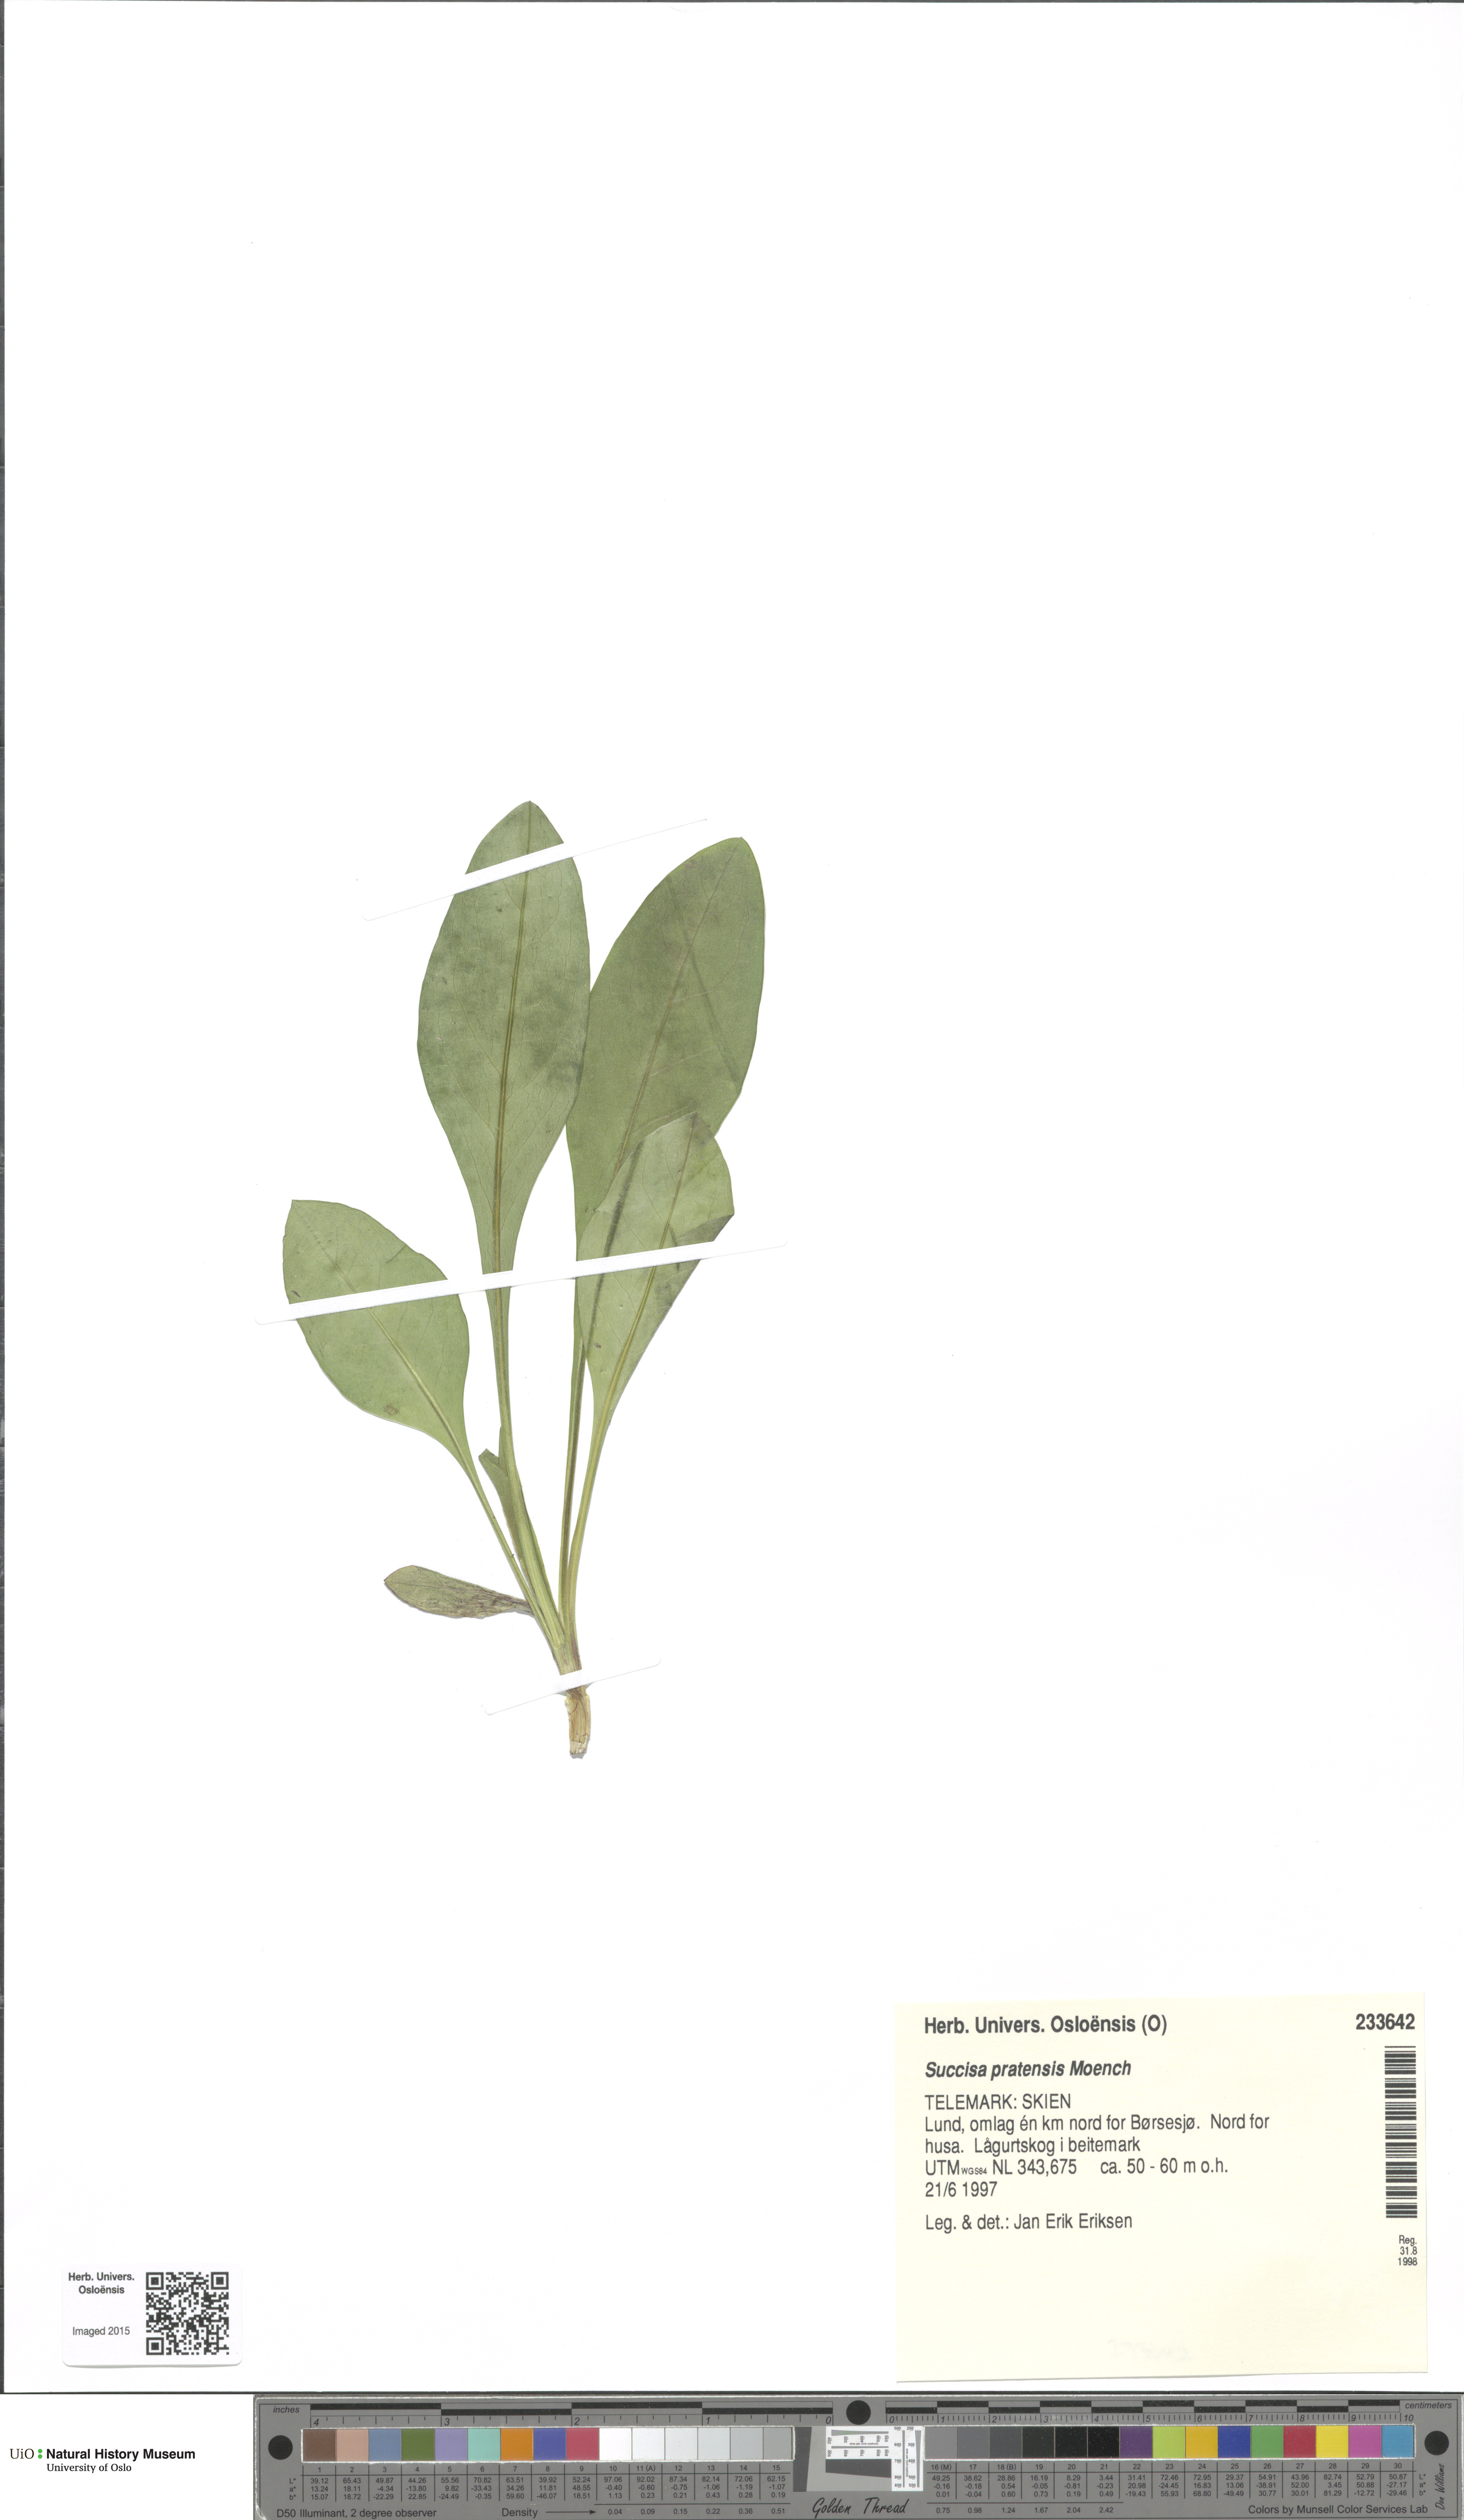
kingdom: Plantae
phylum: Tracheophyta
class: Magnoliopsida
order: Dipsacales
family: Caprifoliaceae
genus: Succisa
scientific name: Succisa pratensis
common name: Devil's-bit
